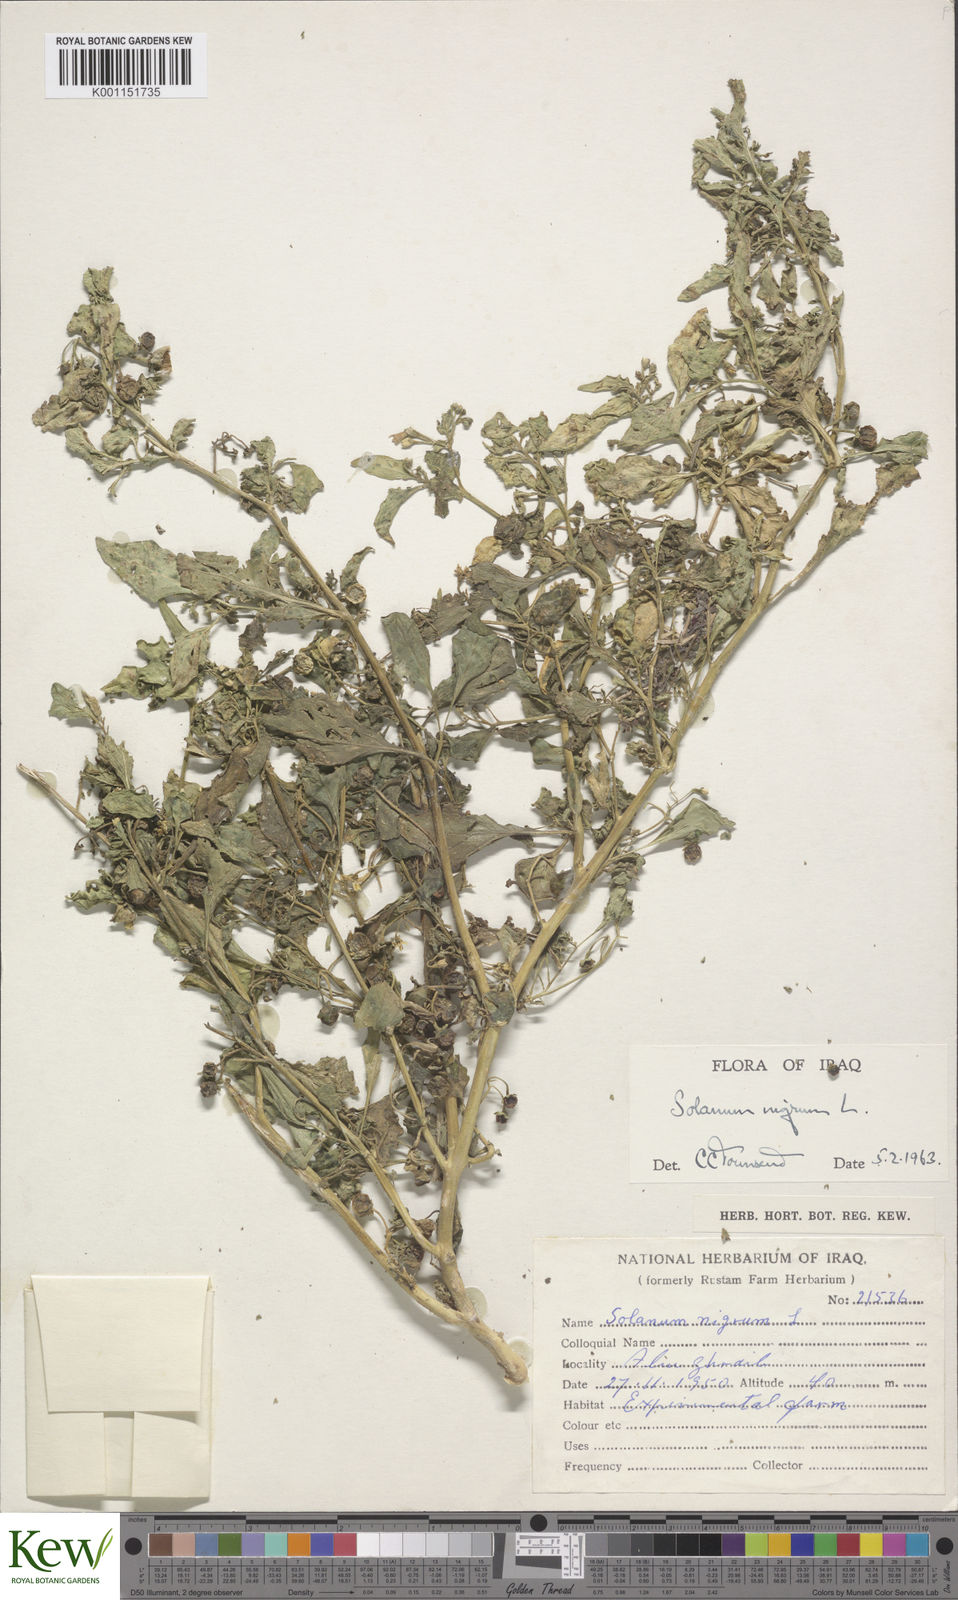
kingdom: Plantae
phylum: Tracheophyta
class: Magnoliopsida
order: Solanales
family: Solanaceae
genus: Solanum
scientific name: Solanum nigrum
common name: Black nightshade
